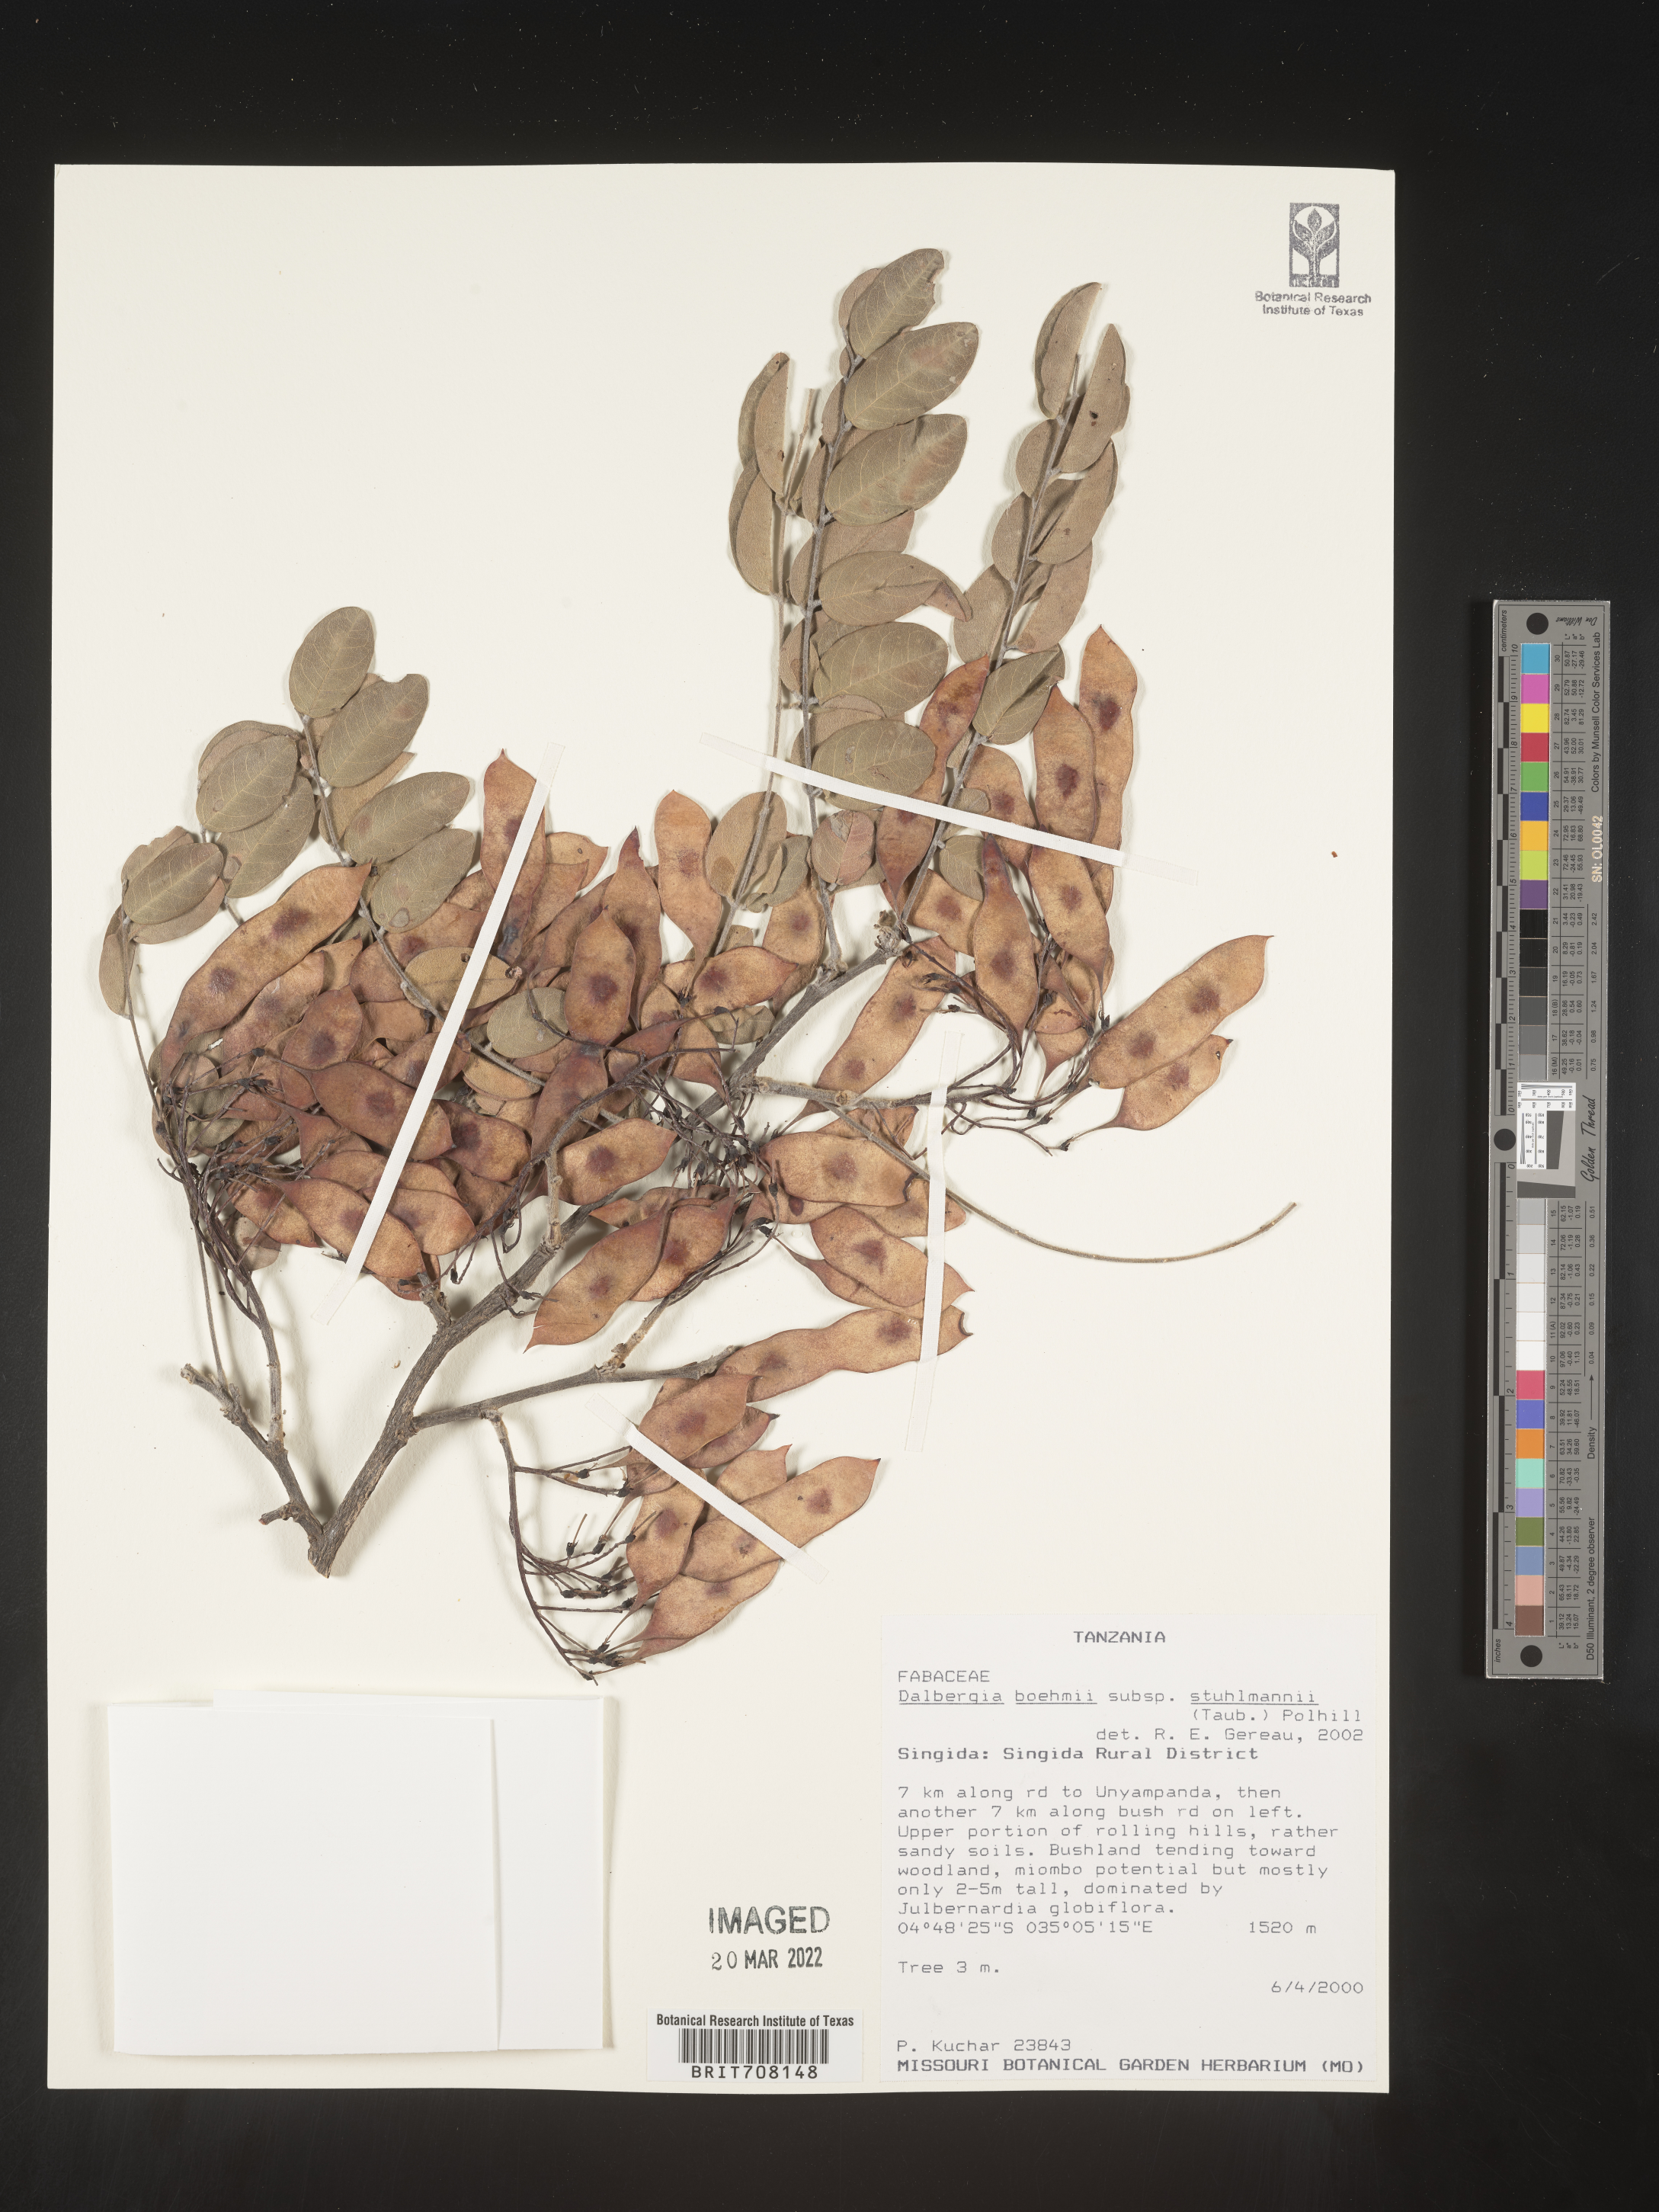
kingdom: Plantae
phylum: Tracheophyta
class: Magnoliopsida
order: Fabales
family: Fabaceae
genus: Dalbergia
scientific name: Dalbergia
